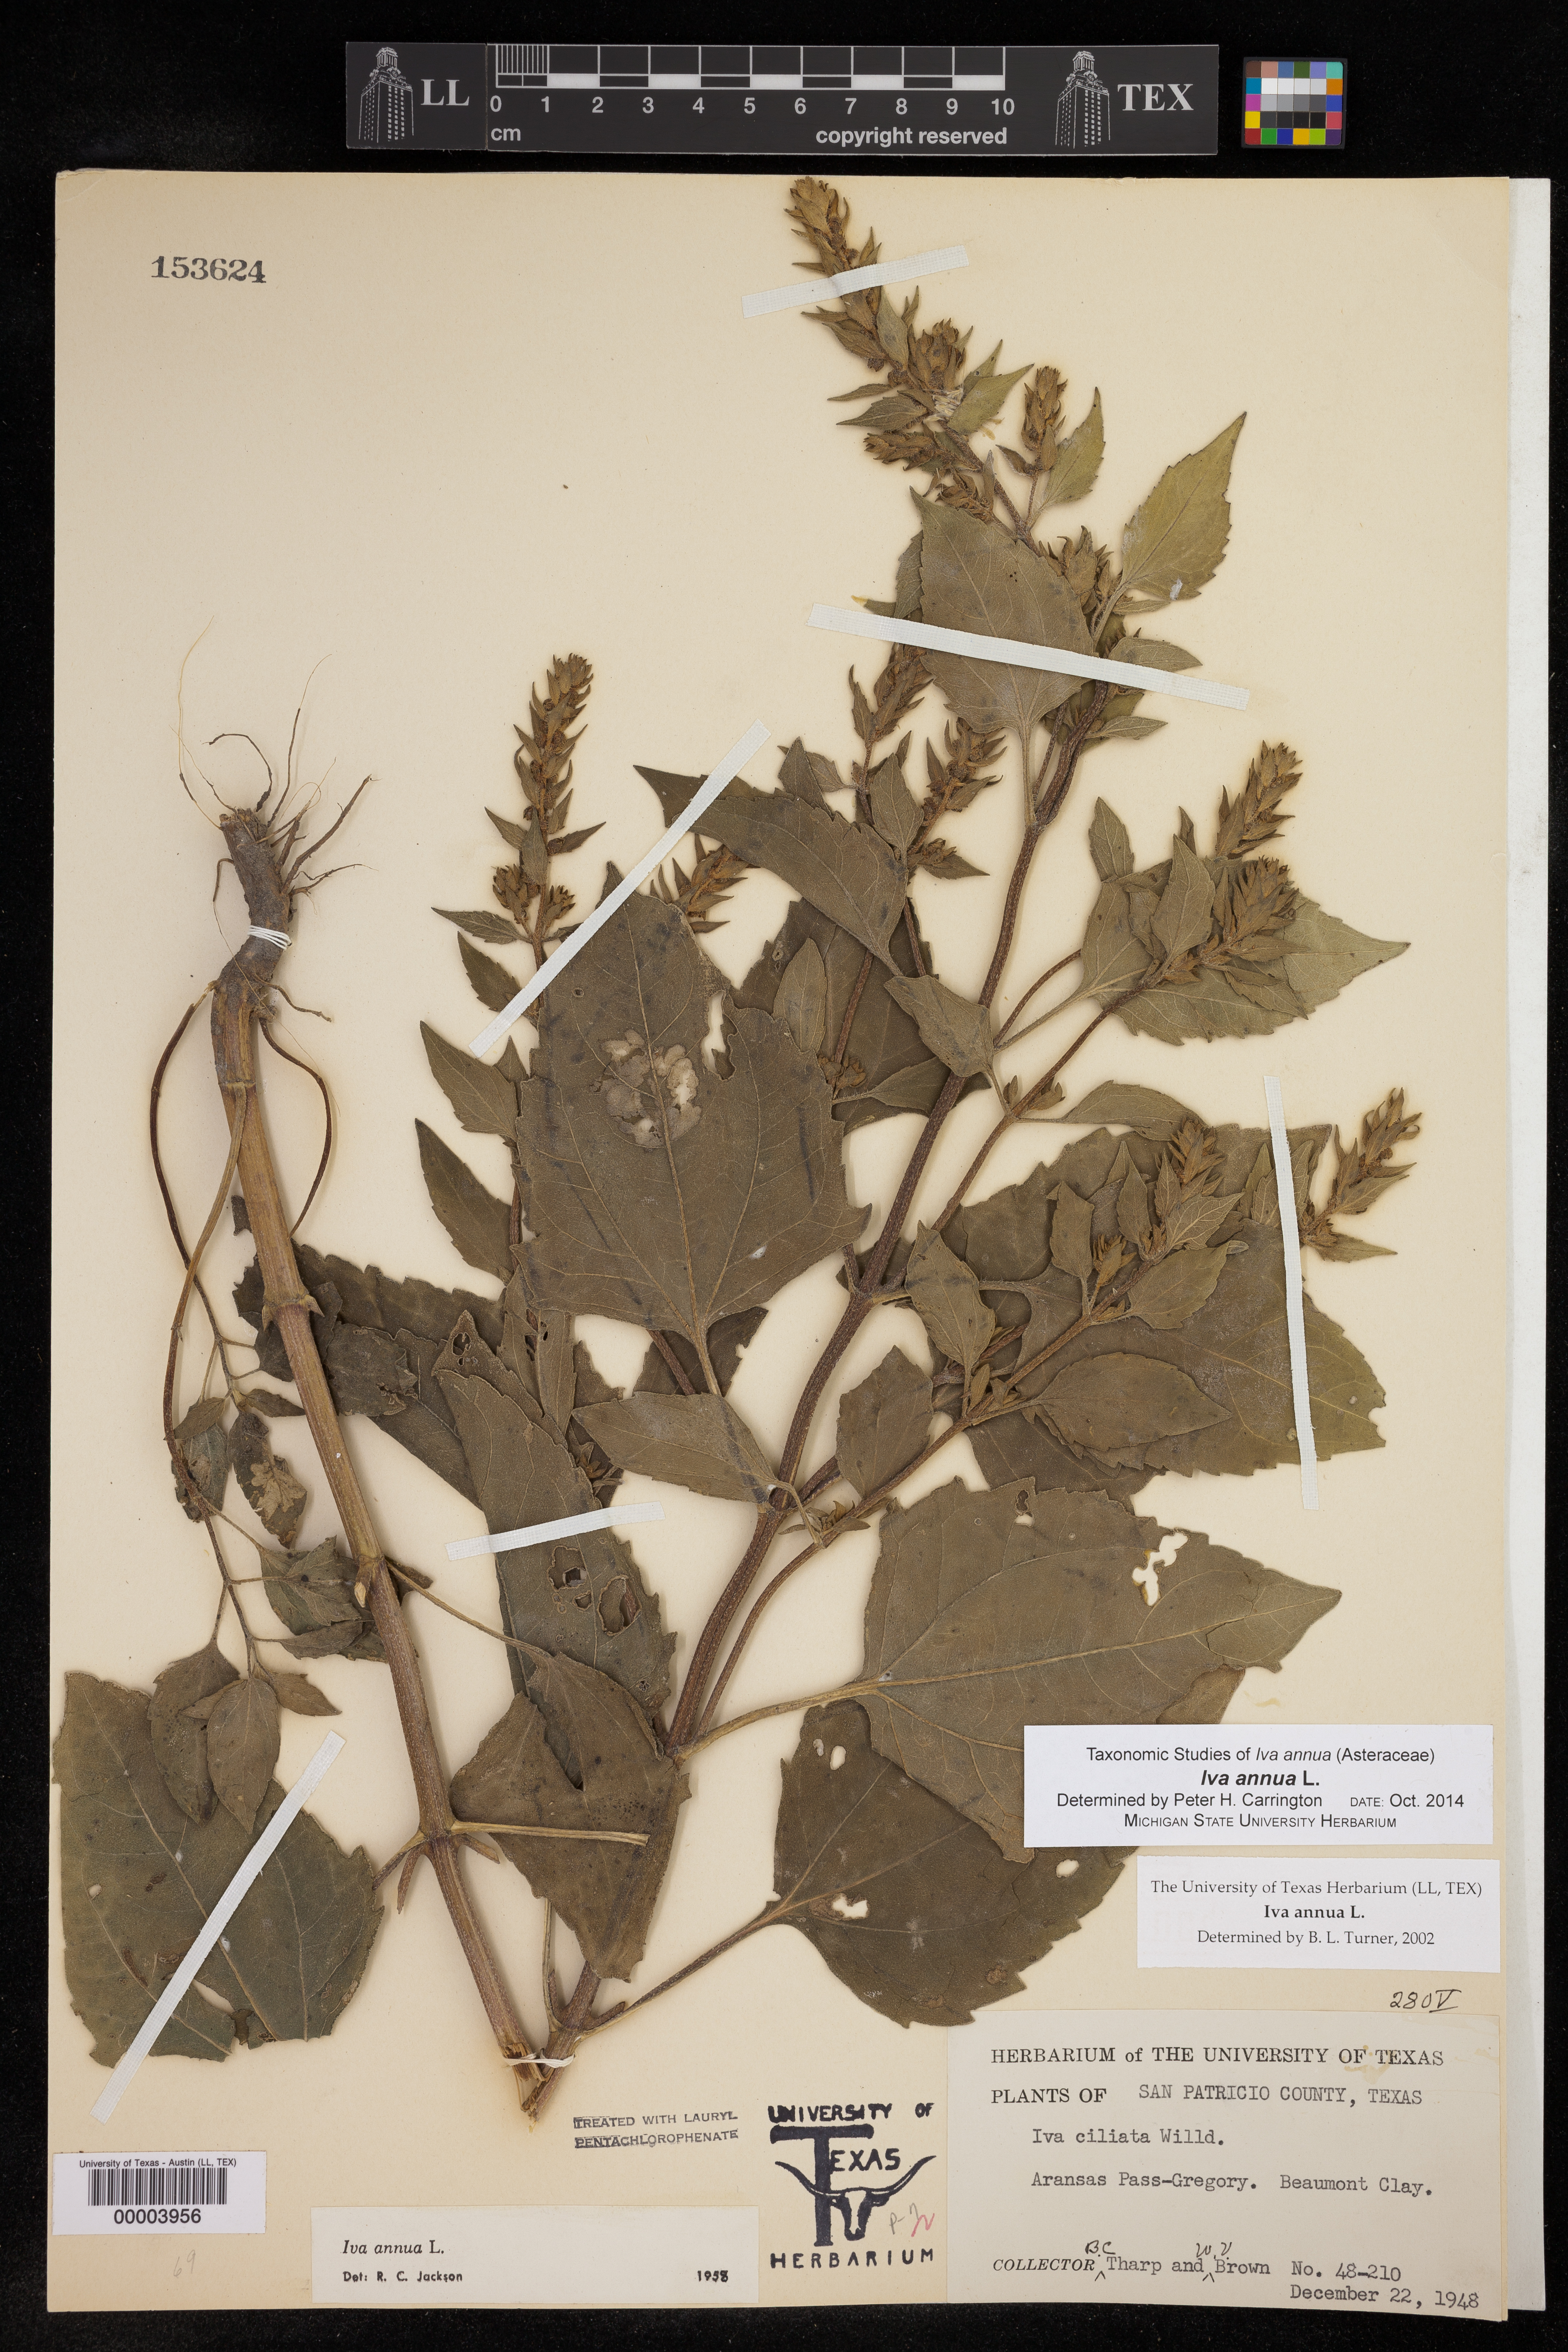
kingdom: Plantae
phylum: Tracheophyta
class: Magnoliopsida
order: Asterales
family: Asteraceae
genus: Iva
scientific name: Iva annua
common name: Marsh-elder
